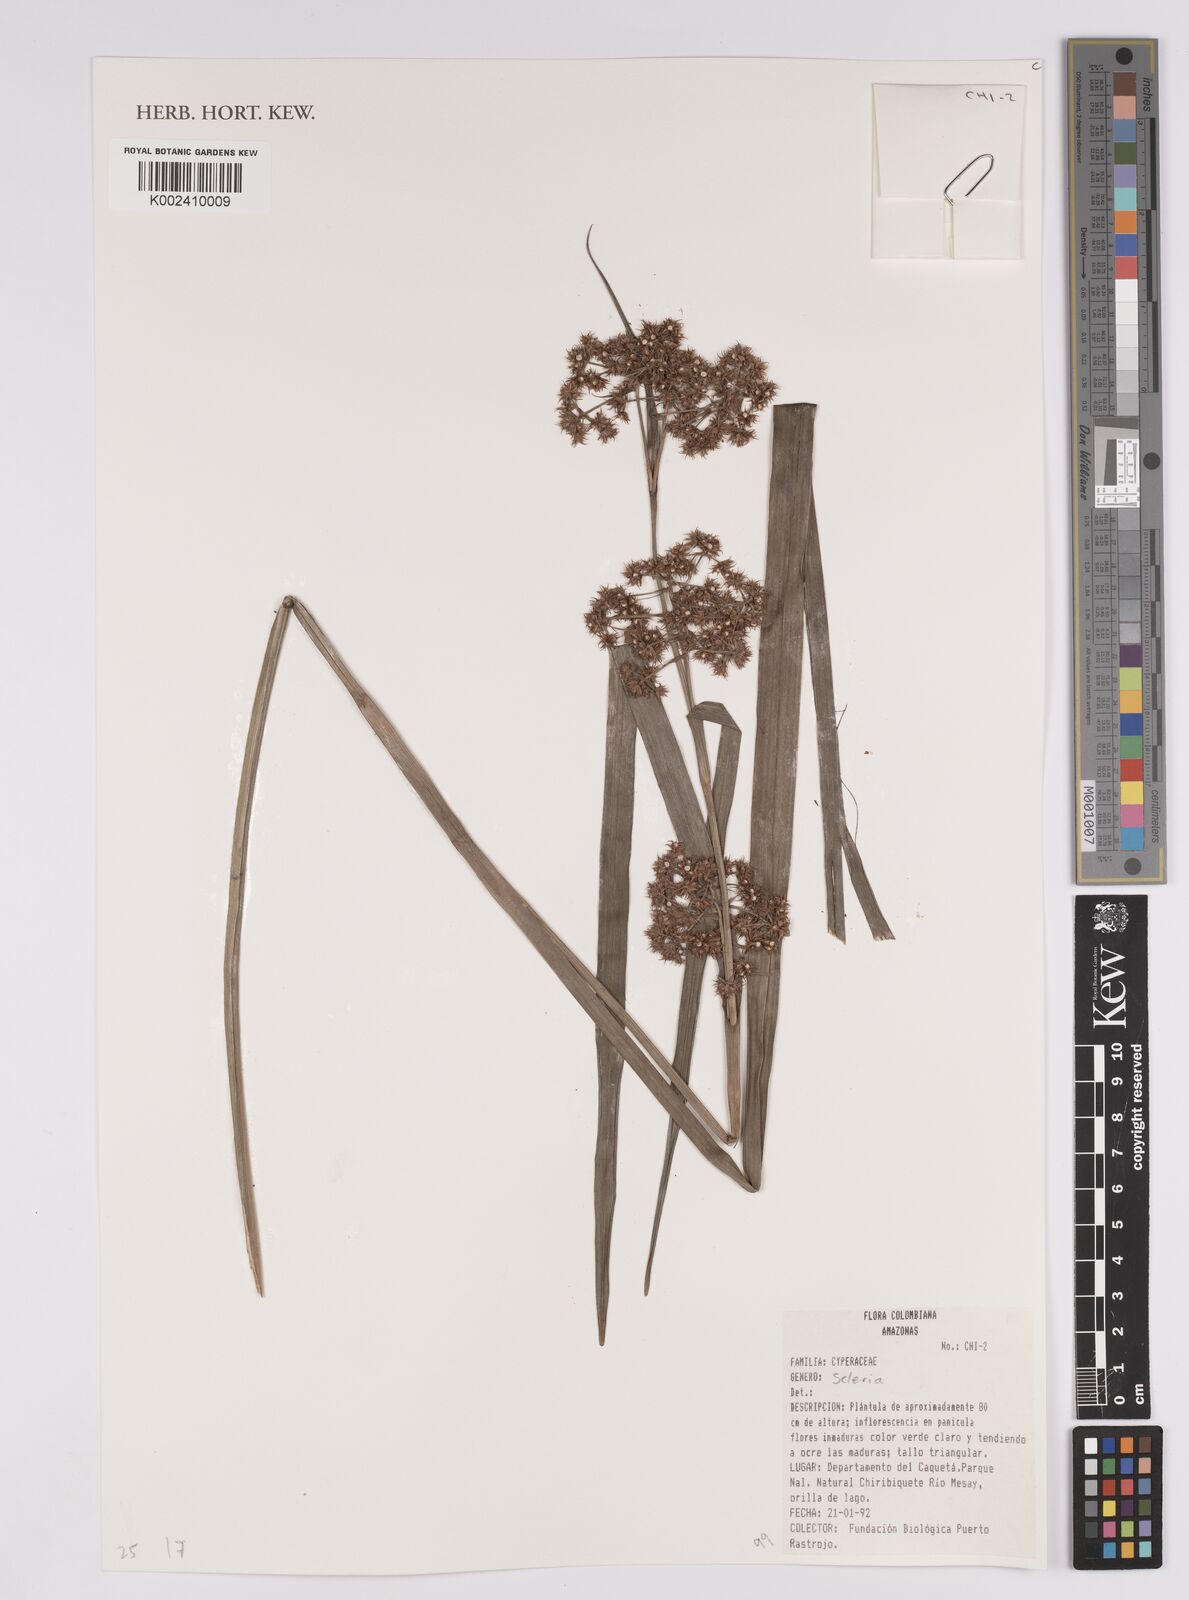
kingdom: Plantae
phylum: Tracheophyta
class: Liliopsida
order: Poales
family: Cyperaceae
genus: Scleria
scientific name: Scleria
